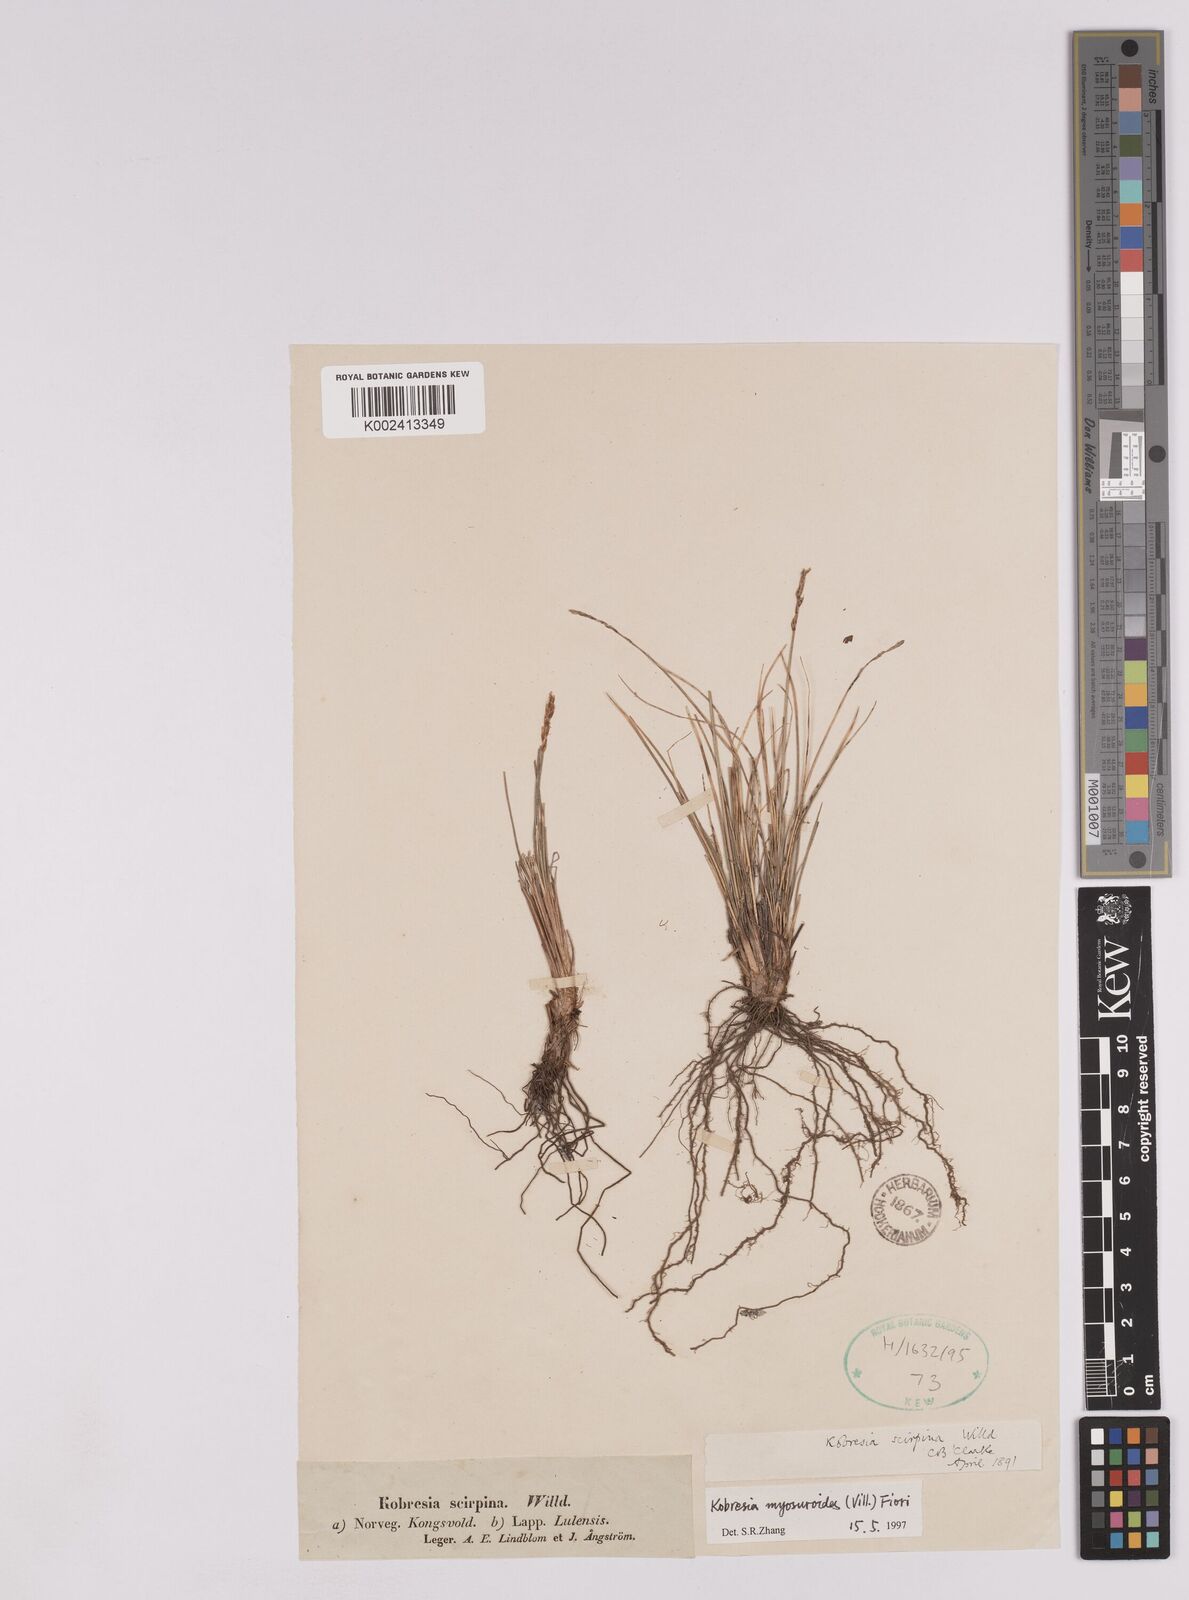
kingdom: Plantae
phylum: Tracheophyta
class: Liliopsida
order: Poales
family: Cyperaceae
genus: Carex
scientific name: Carex myosuroides
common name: Bellard's bog sedge
